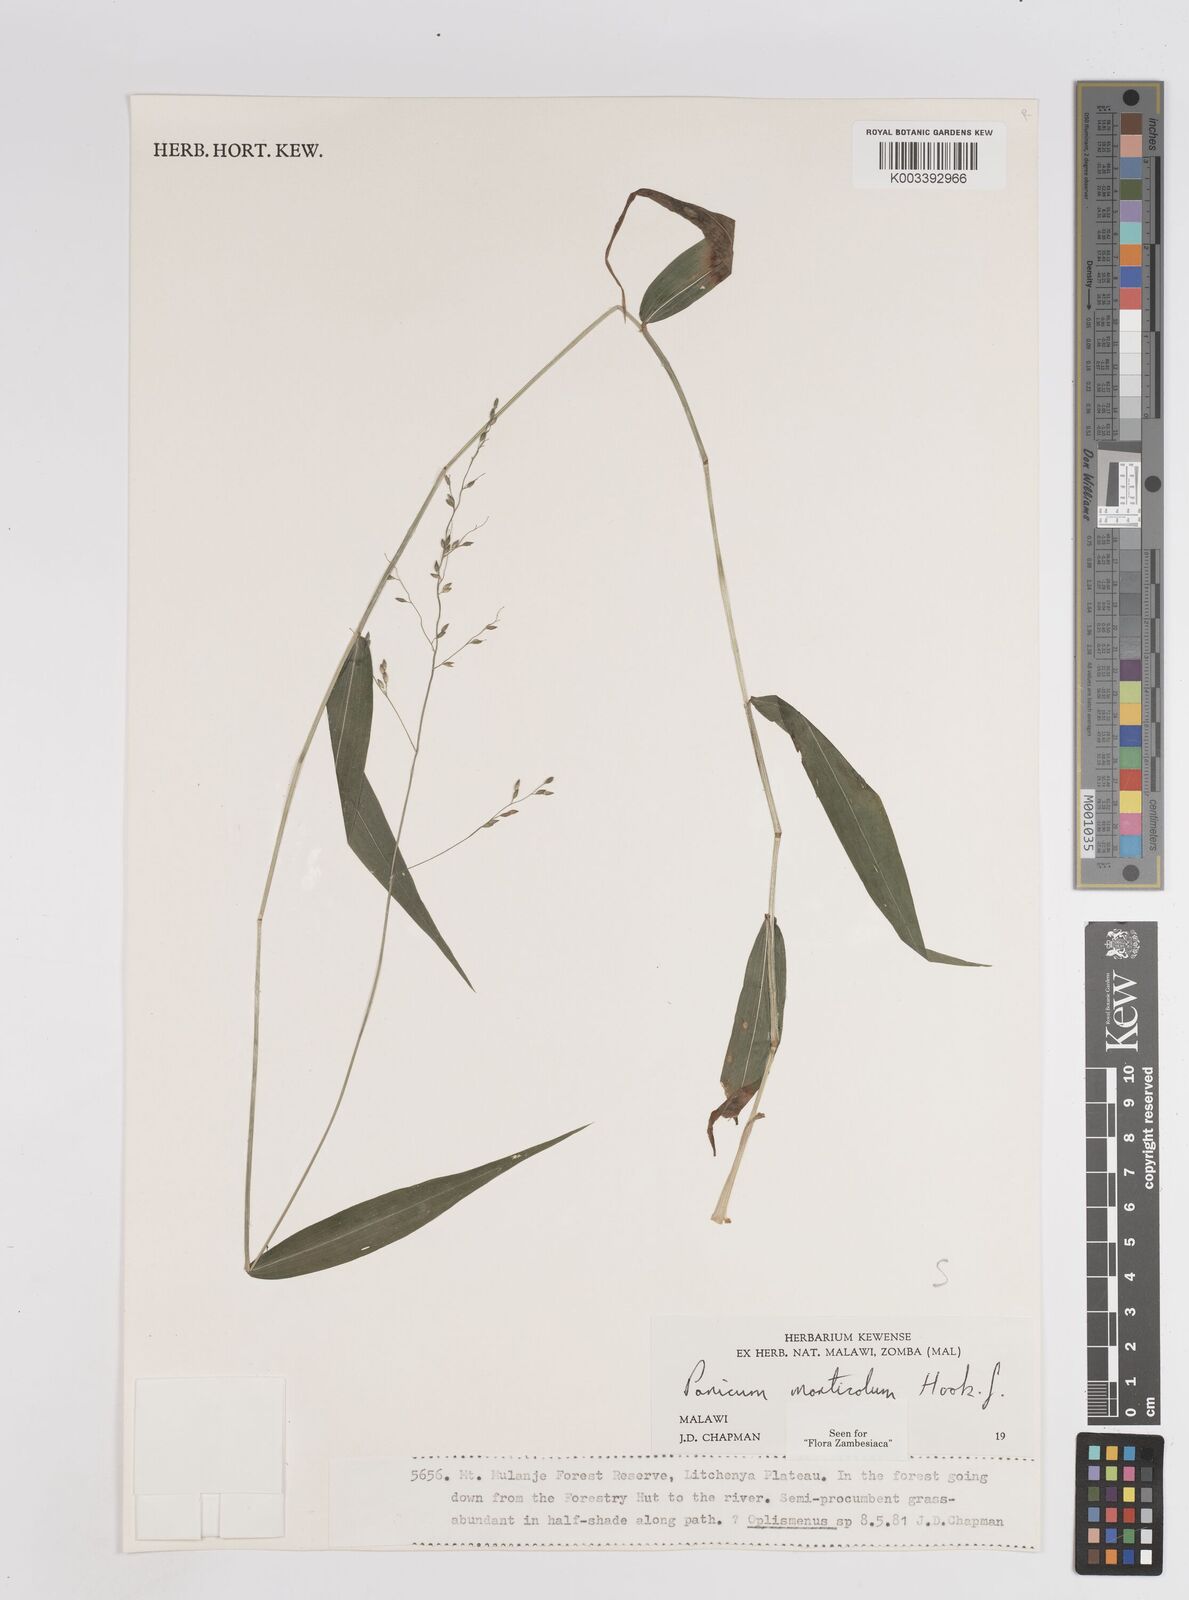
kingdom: Plantae
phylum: Tracheophyta
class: Liliopsida
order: Poales
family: Poaceae
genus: Panicum
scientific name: Panicum monticola
